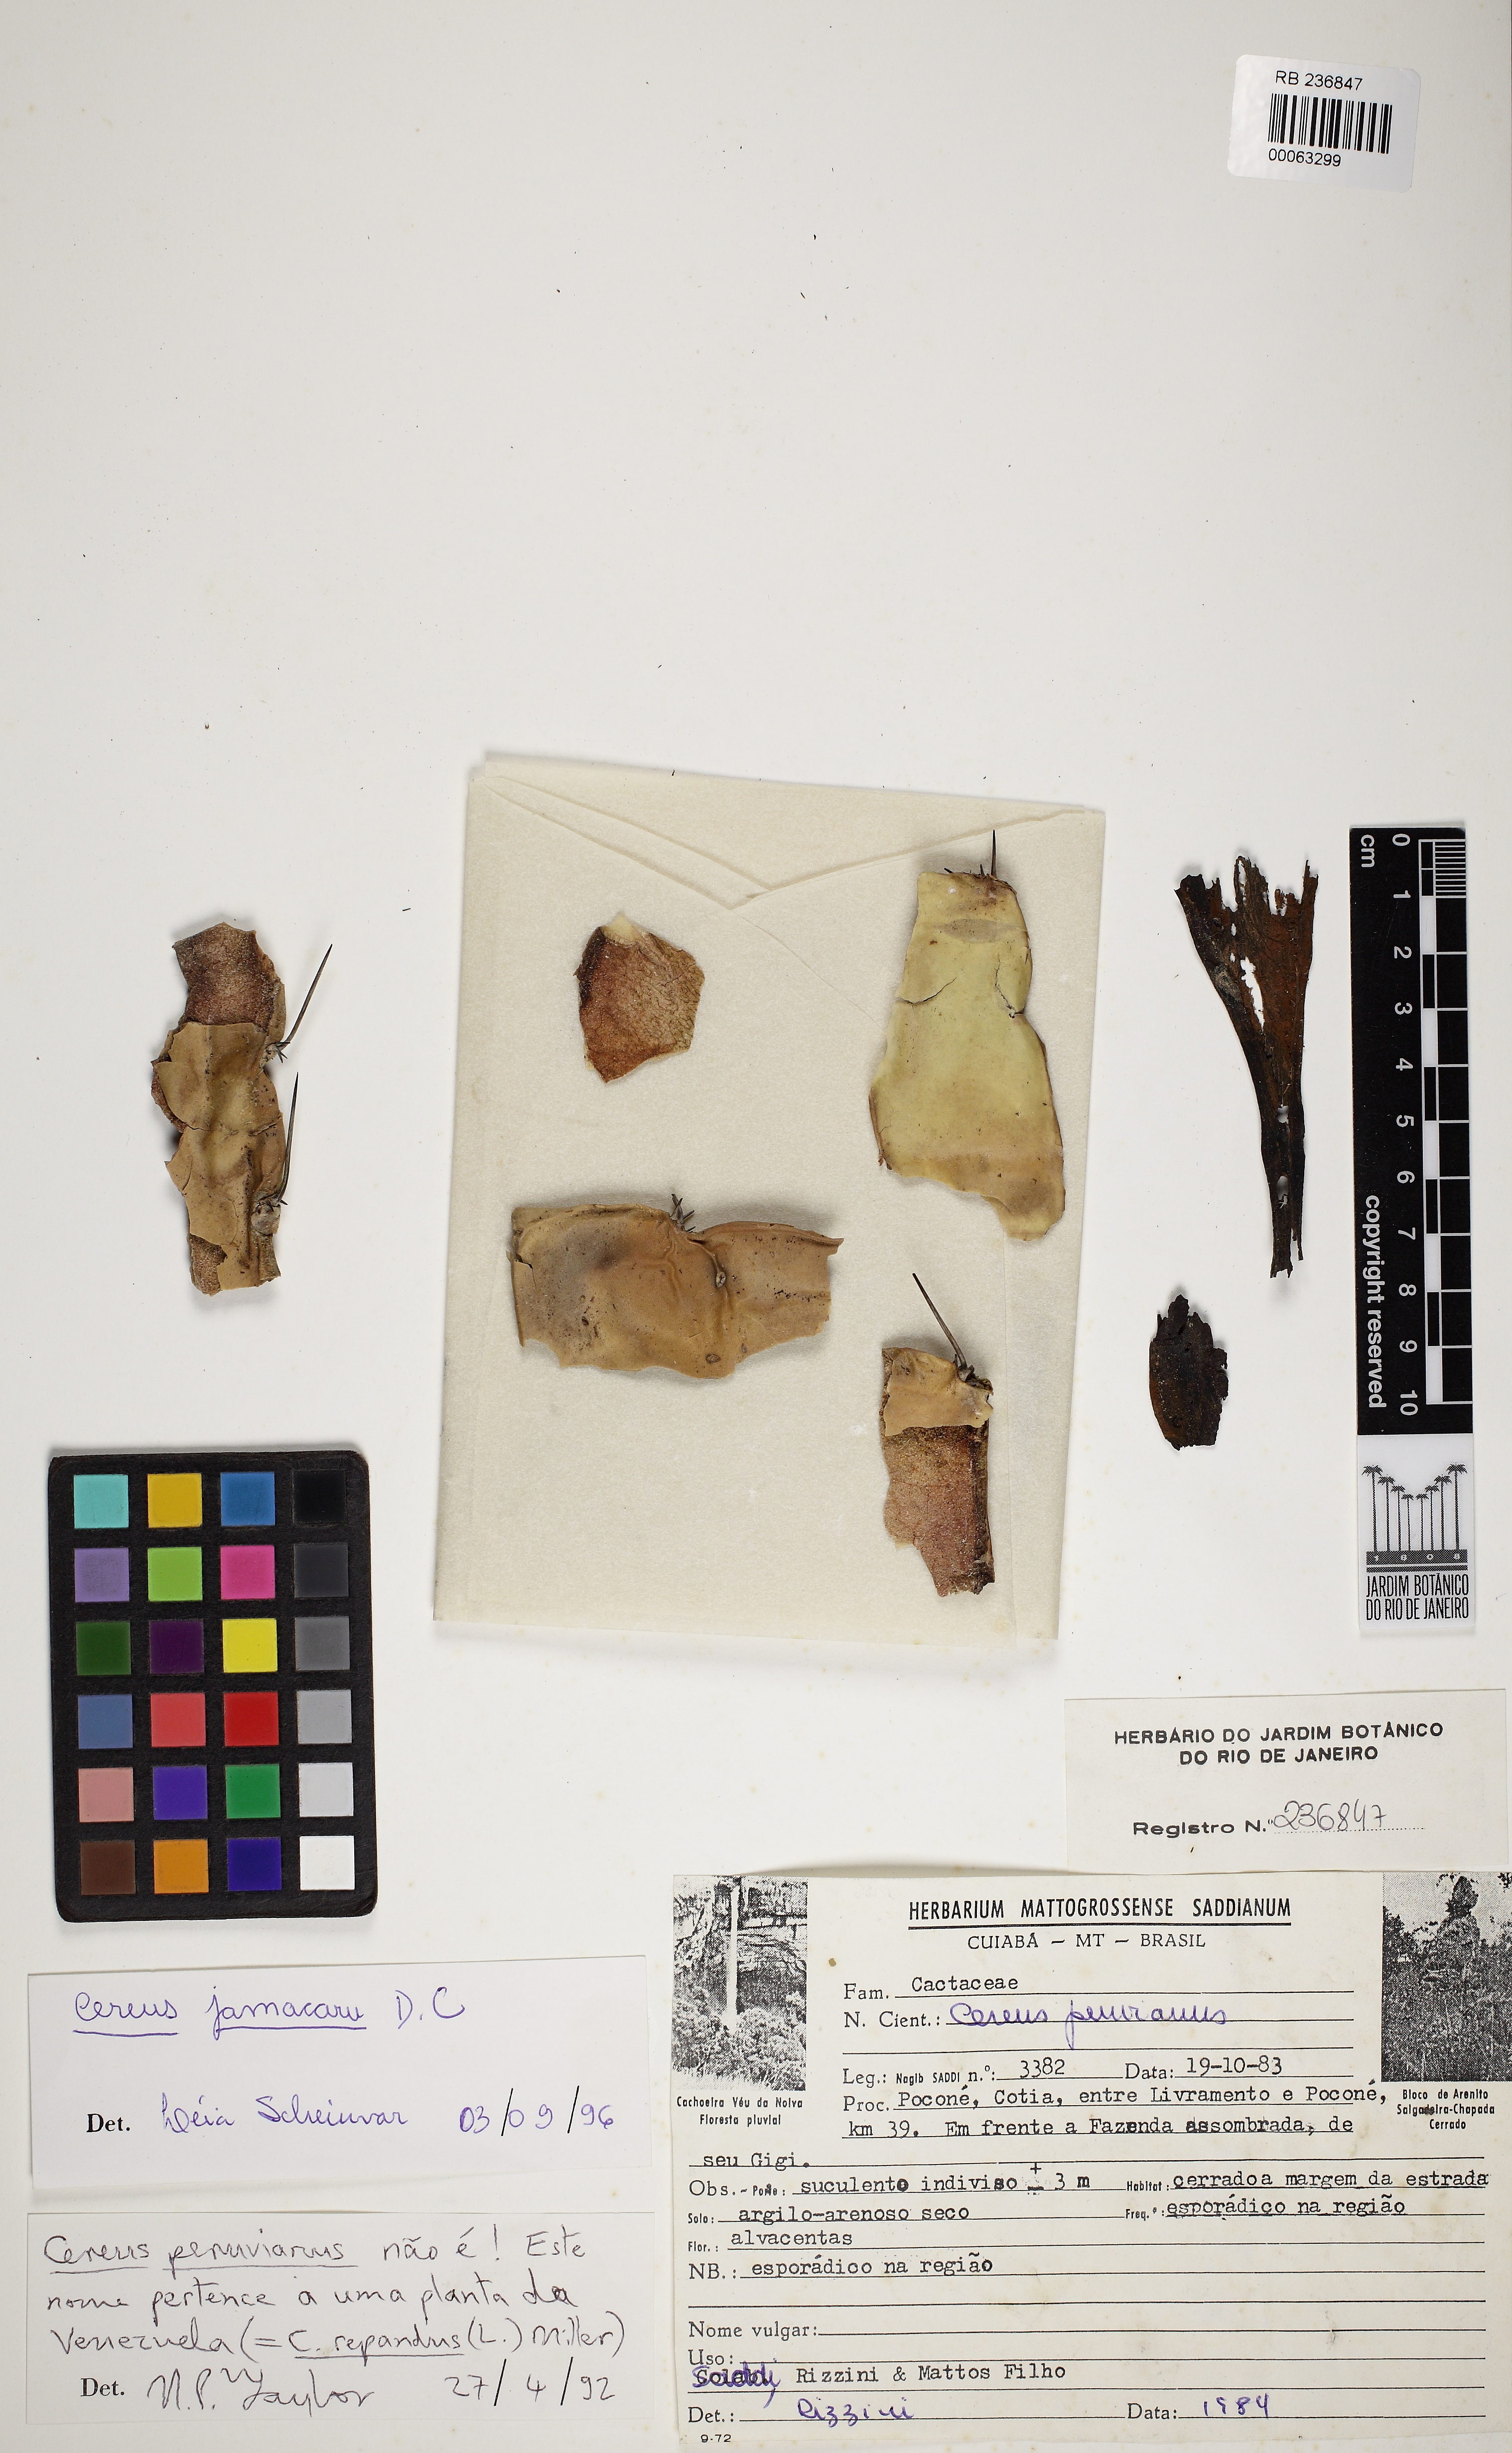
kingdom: Plantae
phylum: Tracheophyta
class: Magnoliopsida
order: Caryophyllales
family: Cactaceae
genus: Cereus
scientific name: Cereus jamacaru
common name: Queen-of-the-night
